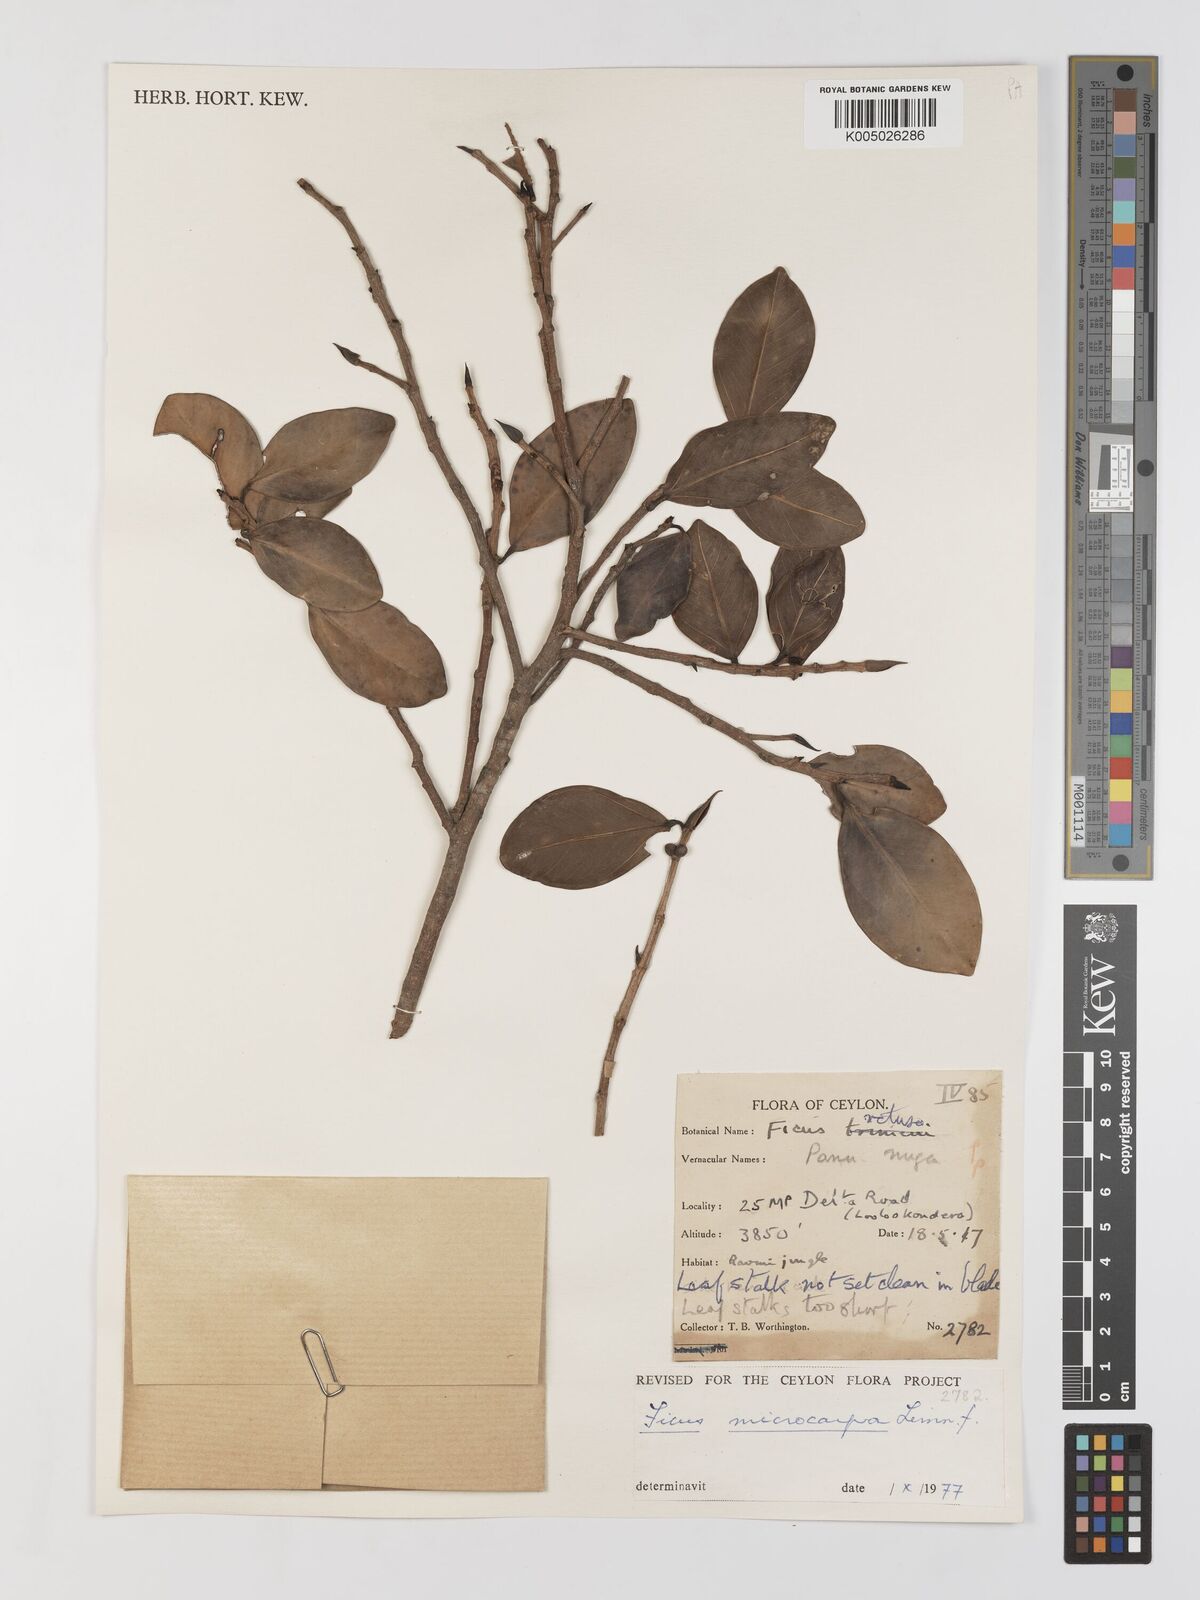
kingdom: Plantae
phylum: Tracheophyta
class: Magnoliopsida
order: Rosales
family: Moraceae
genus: Ficus
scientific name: Ficus
